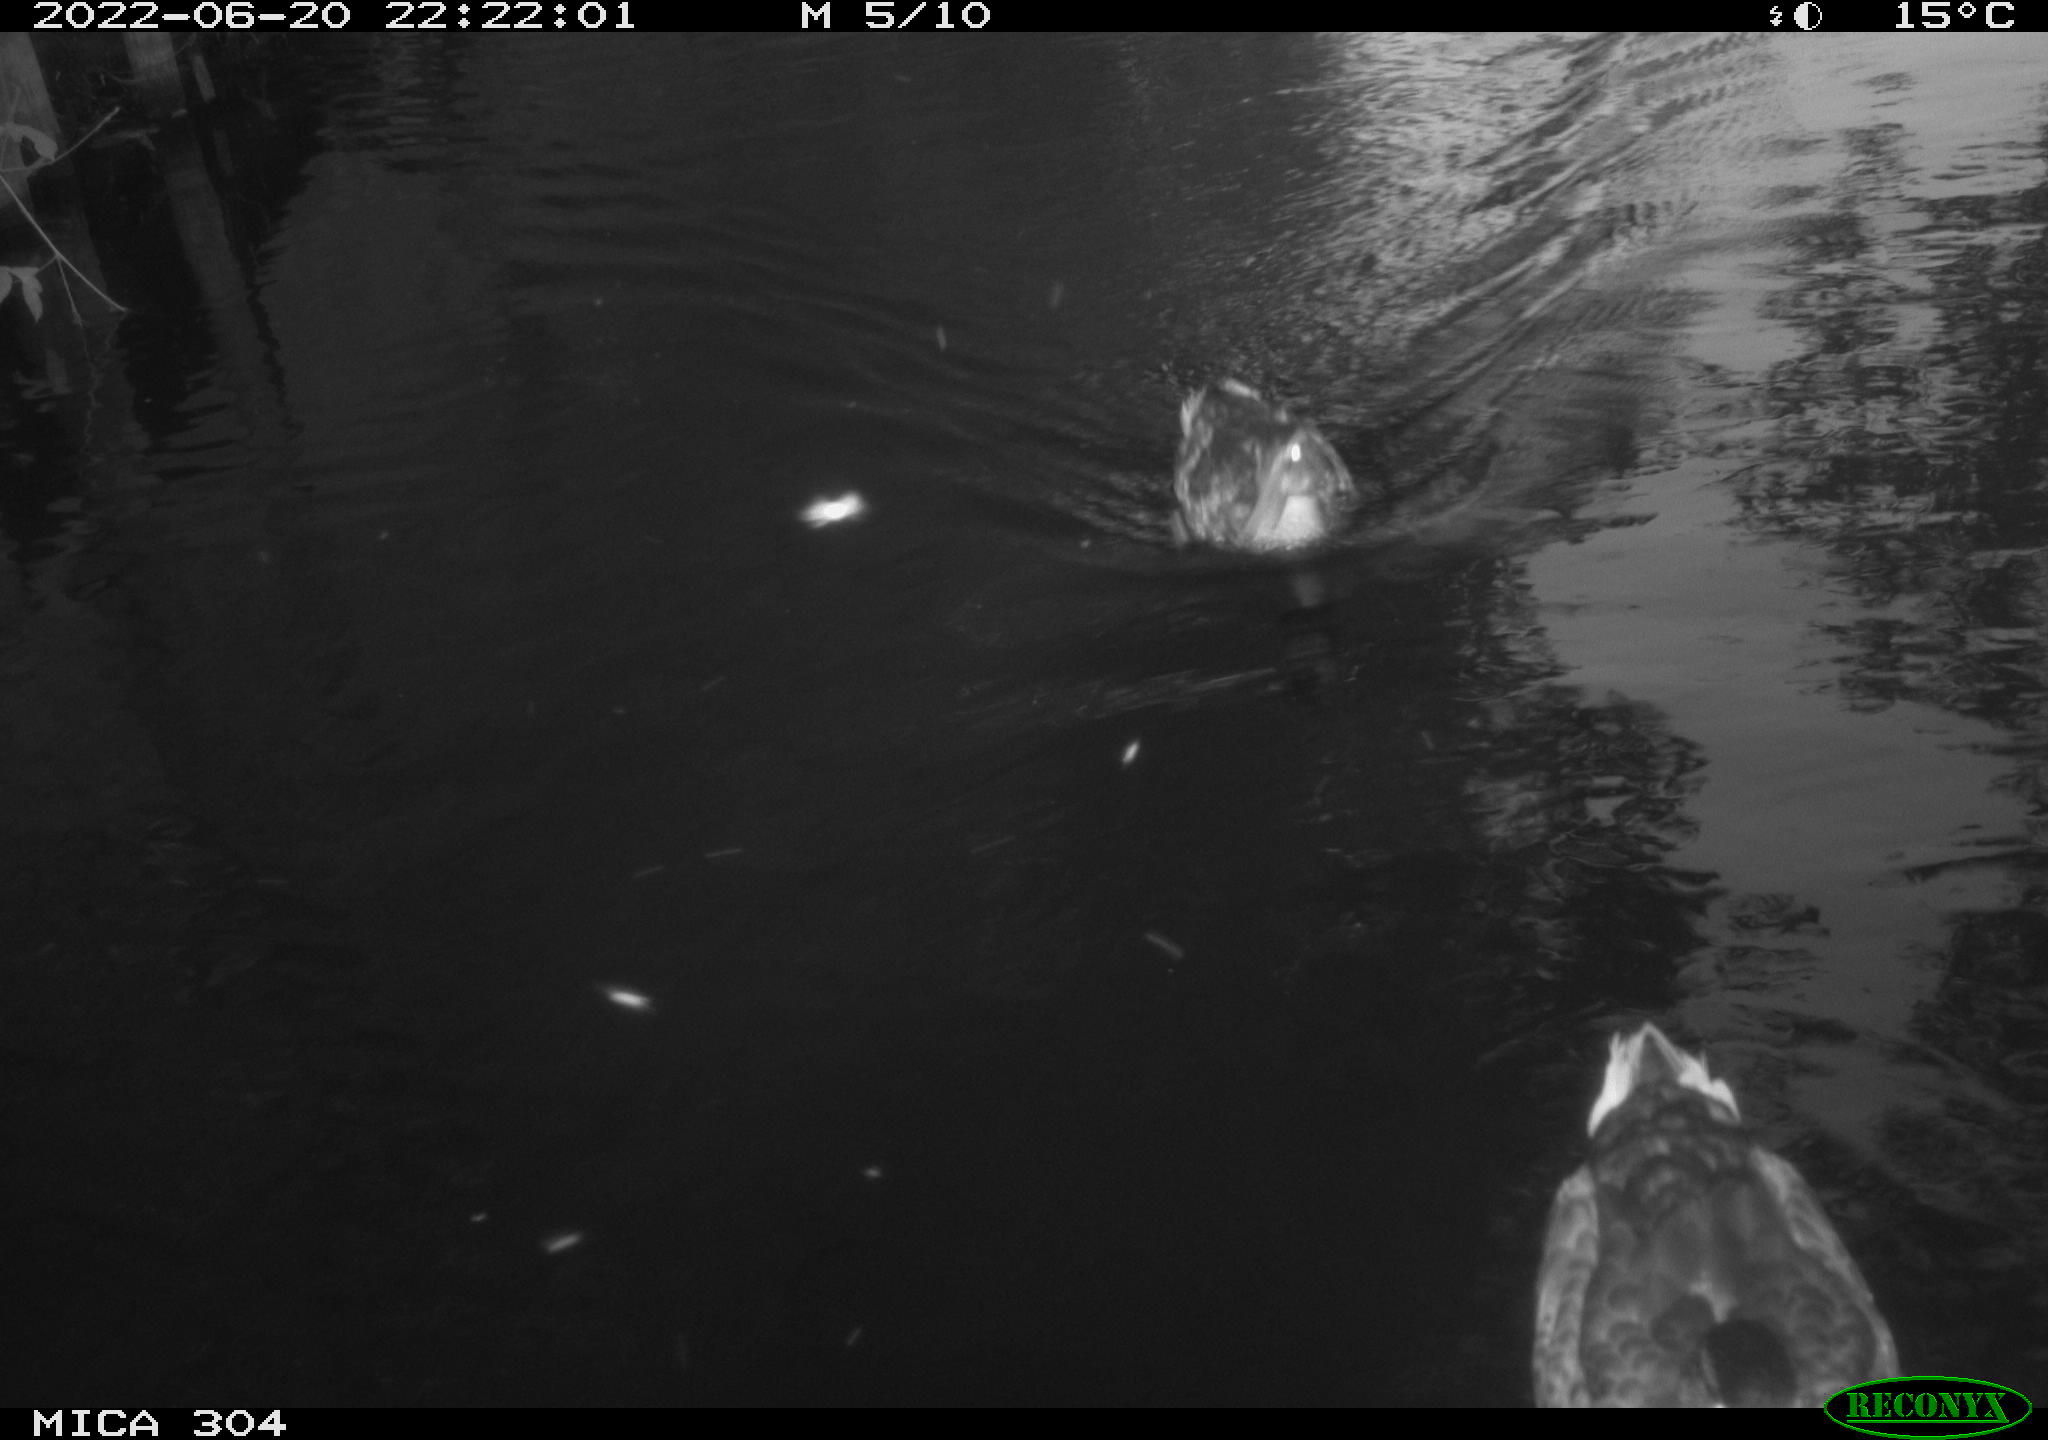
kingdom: Animalia
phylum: Chordata
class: Aves
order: Anseriformes
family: Anatidae
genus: Anas
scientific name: Anas platyrhynchos
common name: Mallard
